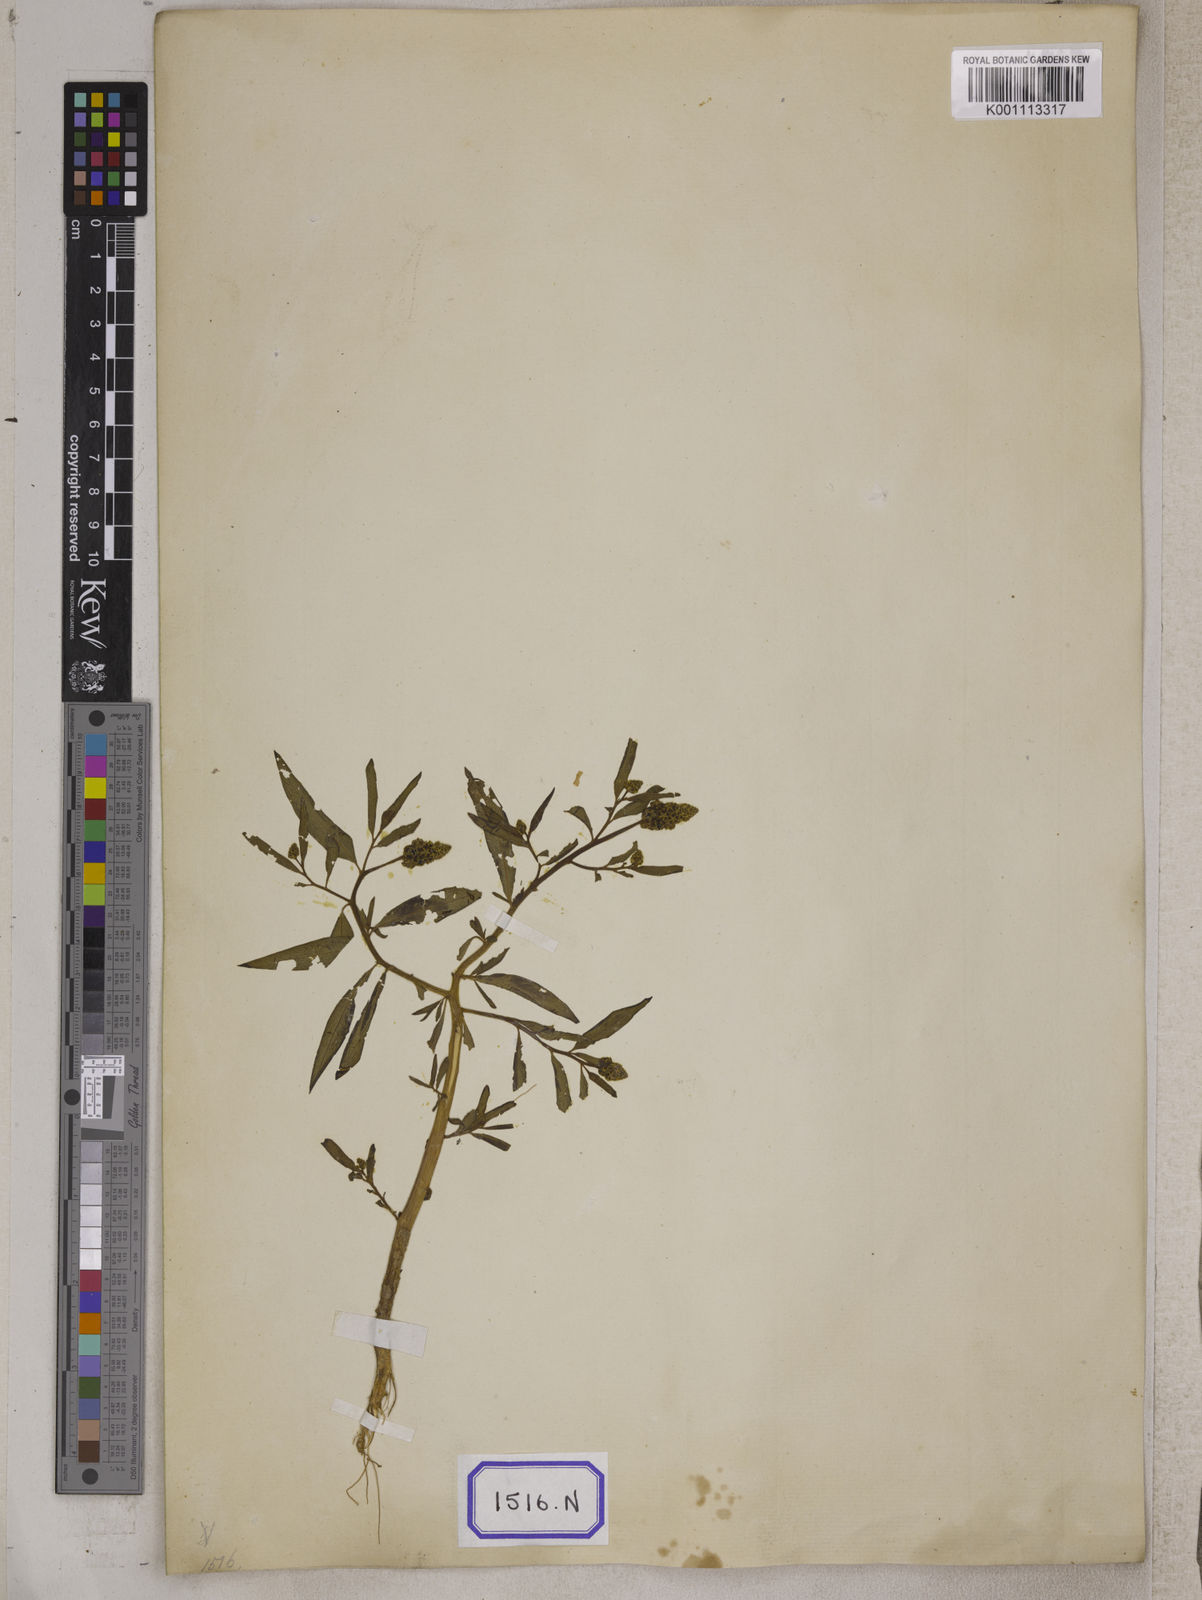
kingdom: Plantae
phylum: Tracheophyta
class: Magnoliopsida
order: Solanales
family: Sphenocleaceae
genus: Sphenoclea
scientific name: Sphenoclea
